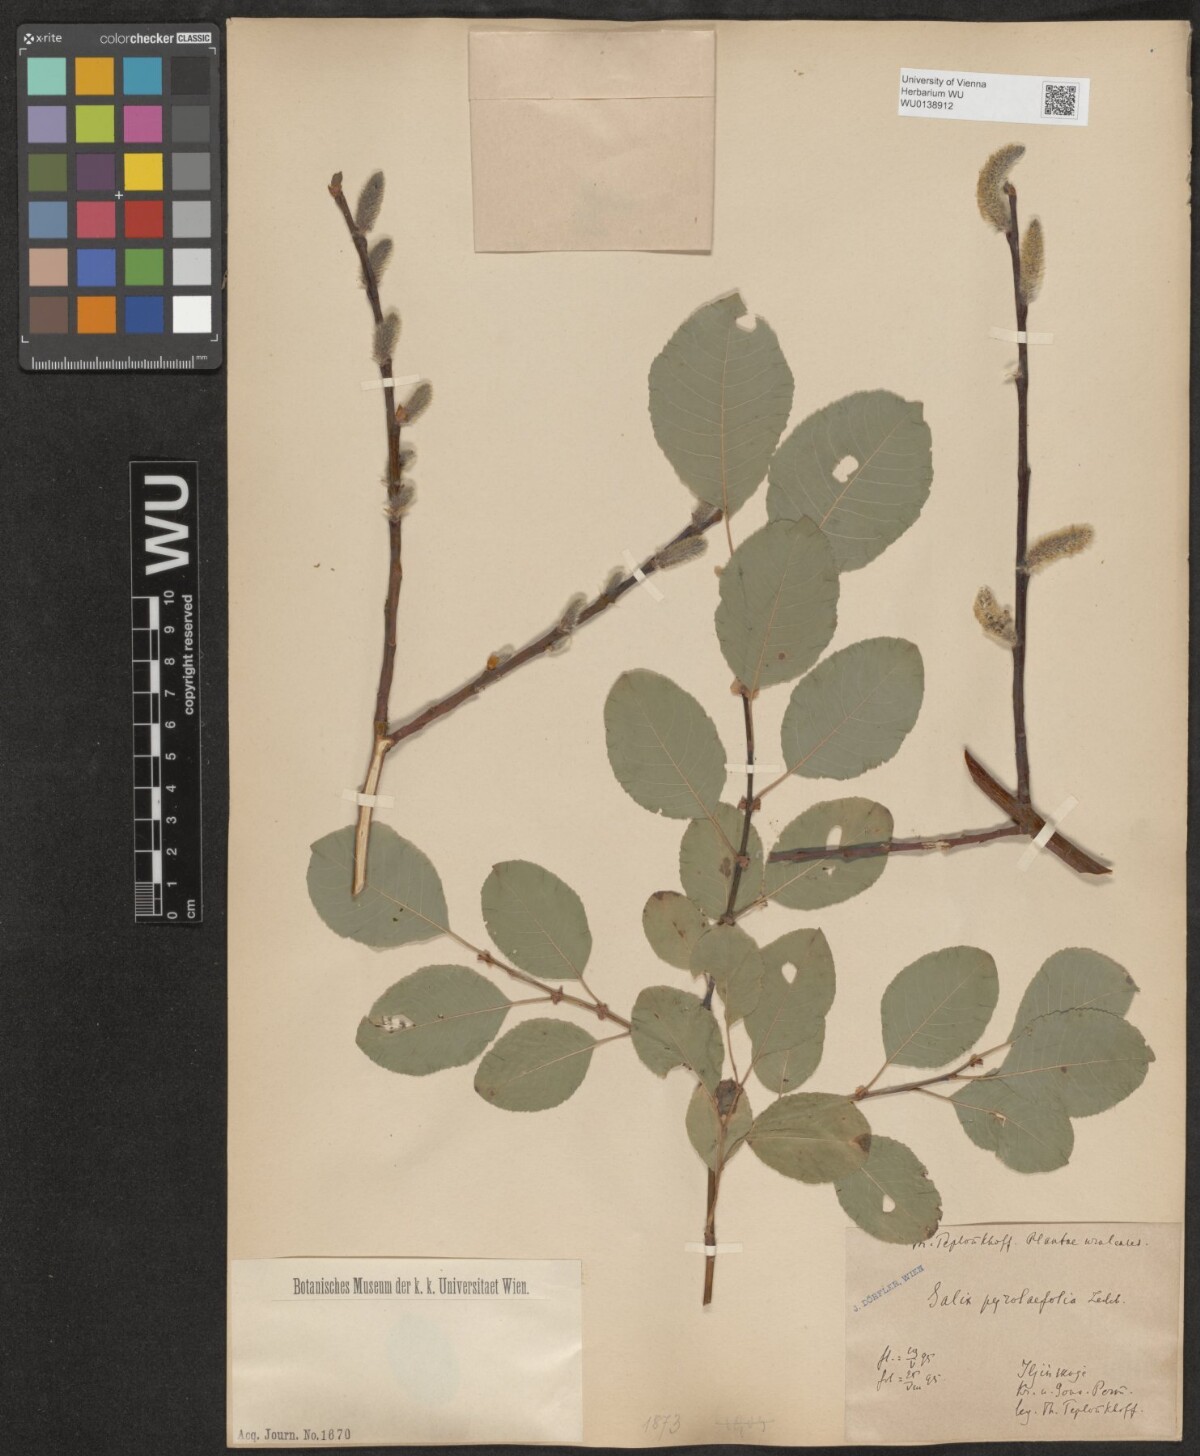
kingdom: Plantae
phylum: Tracheophyta
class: Magnoliopsida
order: Malpighiales
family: Salicaceae
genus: Salix
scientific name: Salix pyrolifolia
